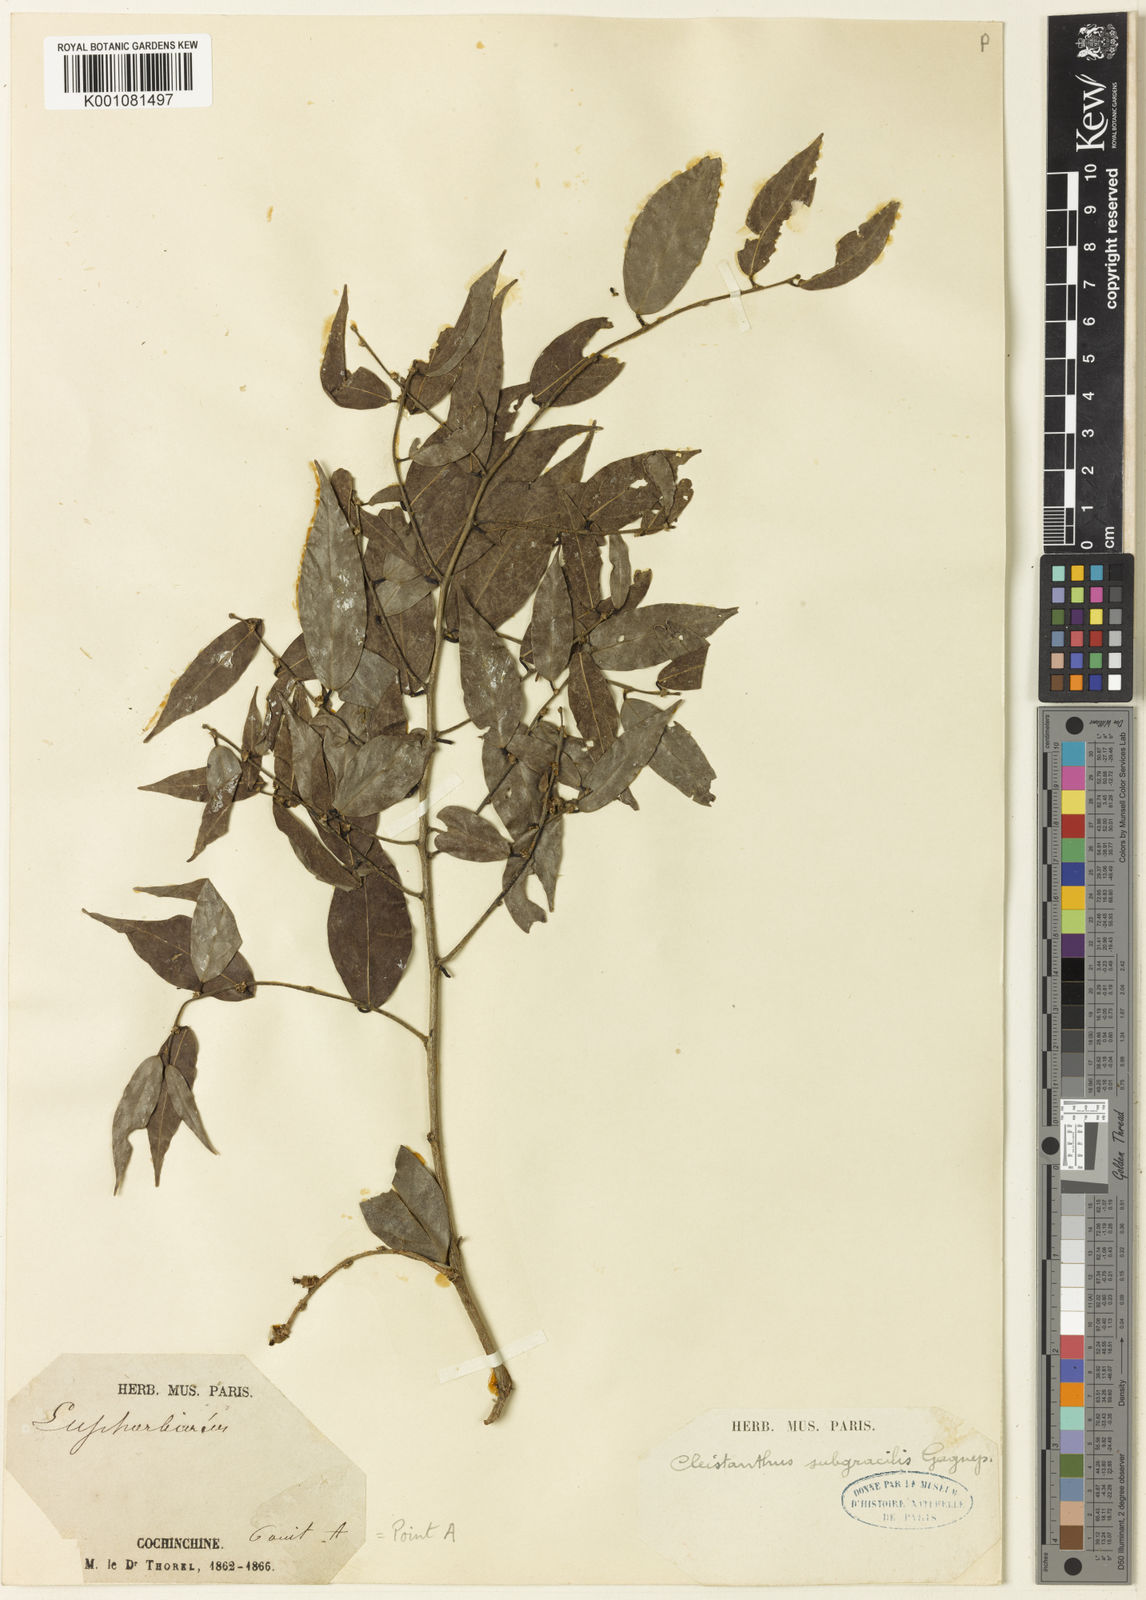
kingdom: Plantae
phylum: Tracheophyta
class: Magnoliopsida
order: Malpighiales
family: Phyllanthaceae
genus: Cleistanthus
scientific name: Cleistanthus
